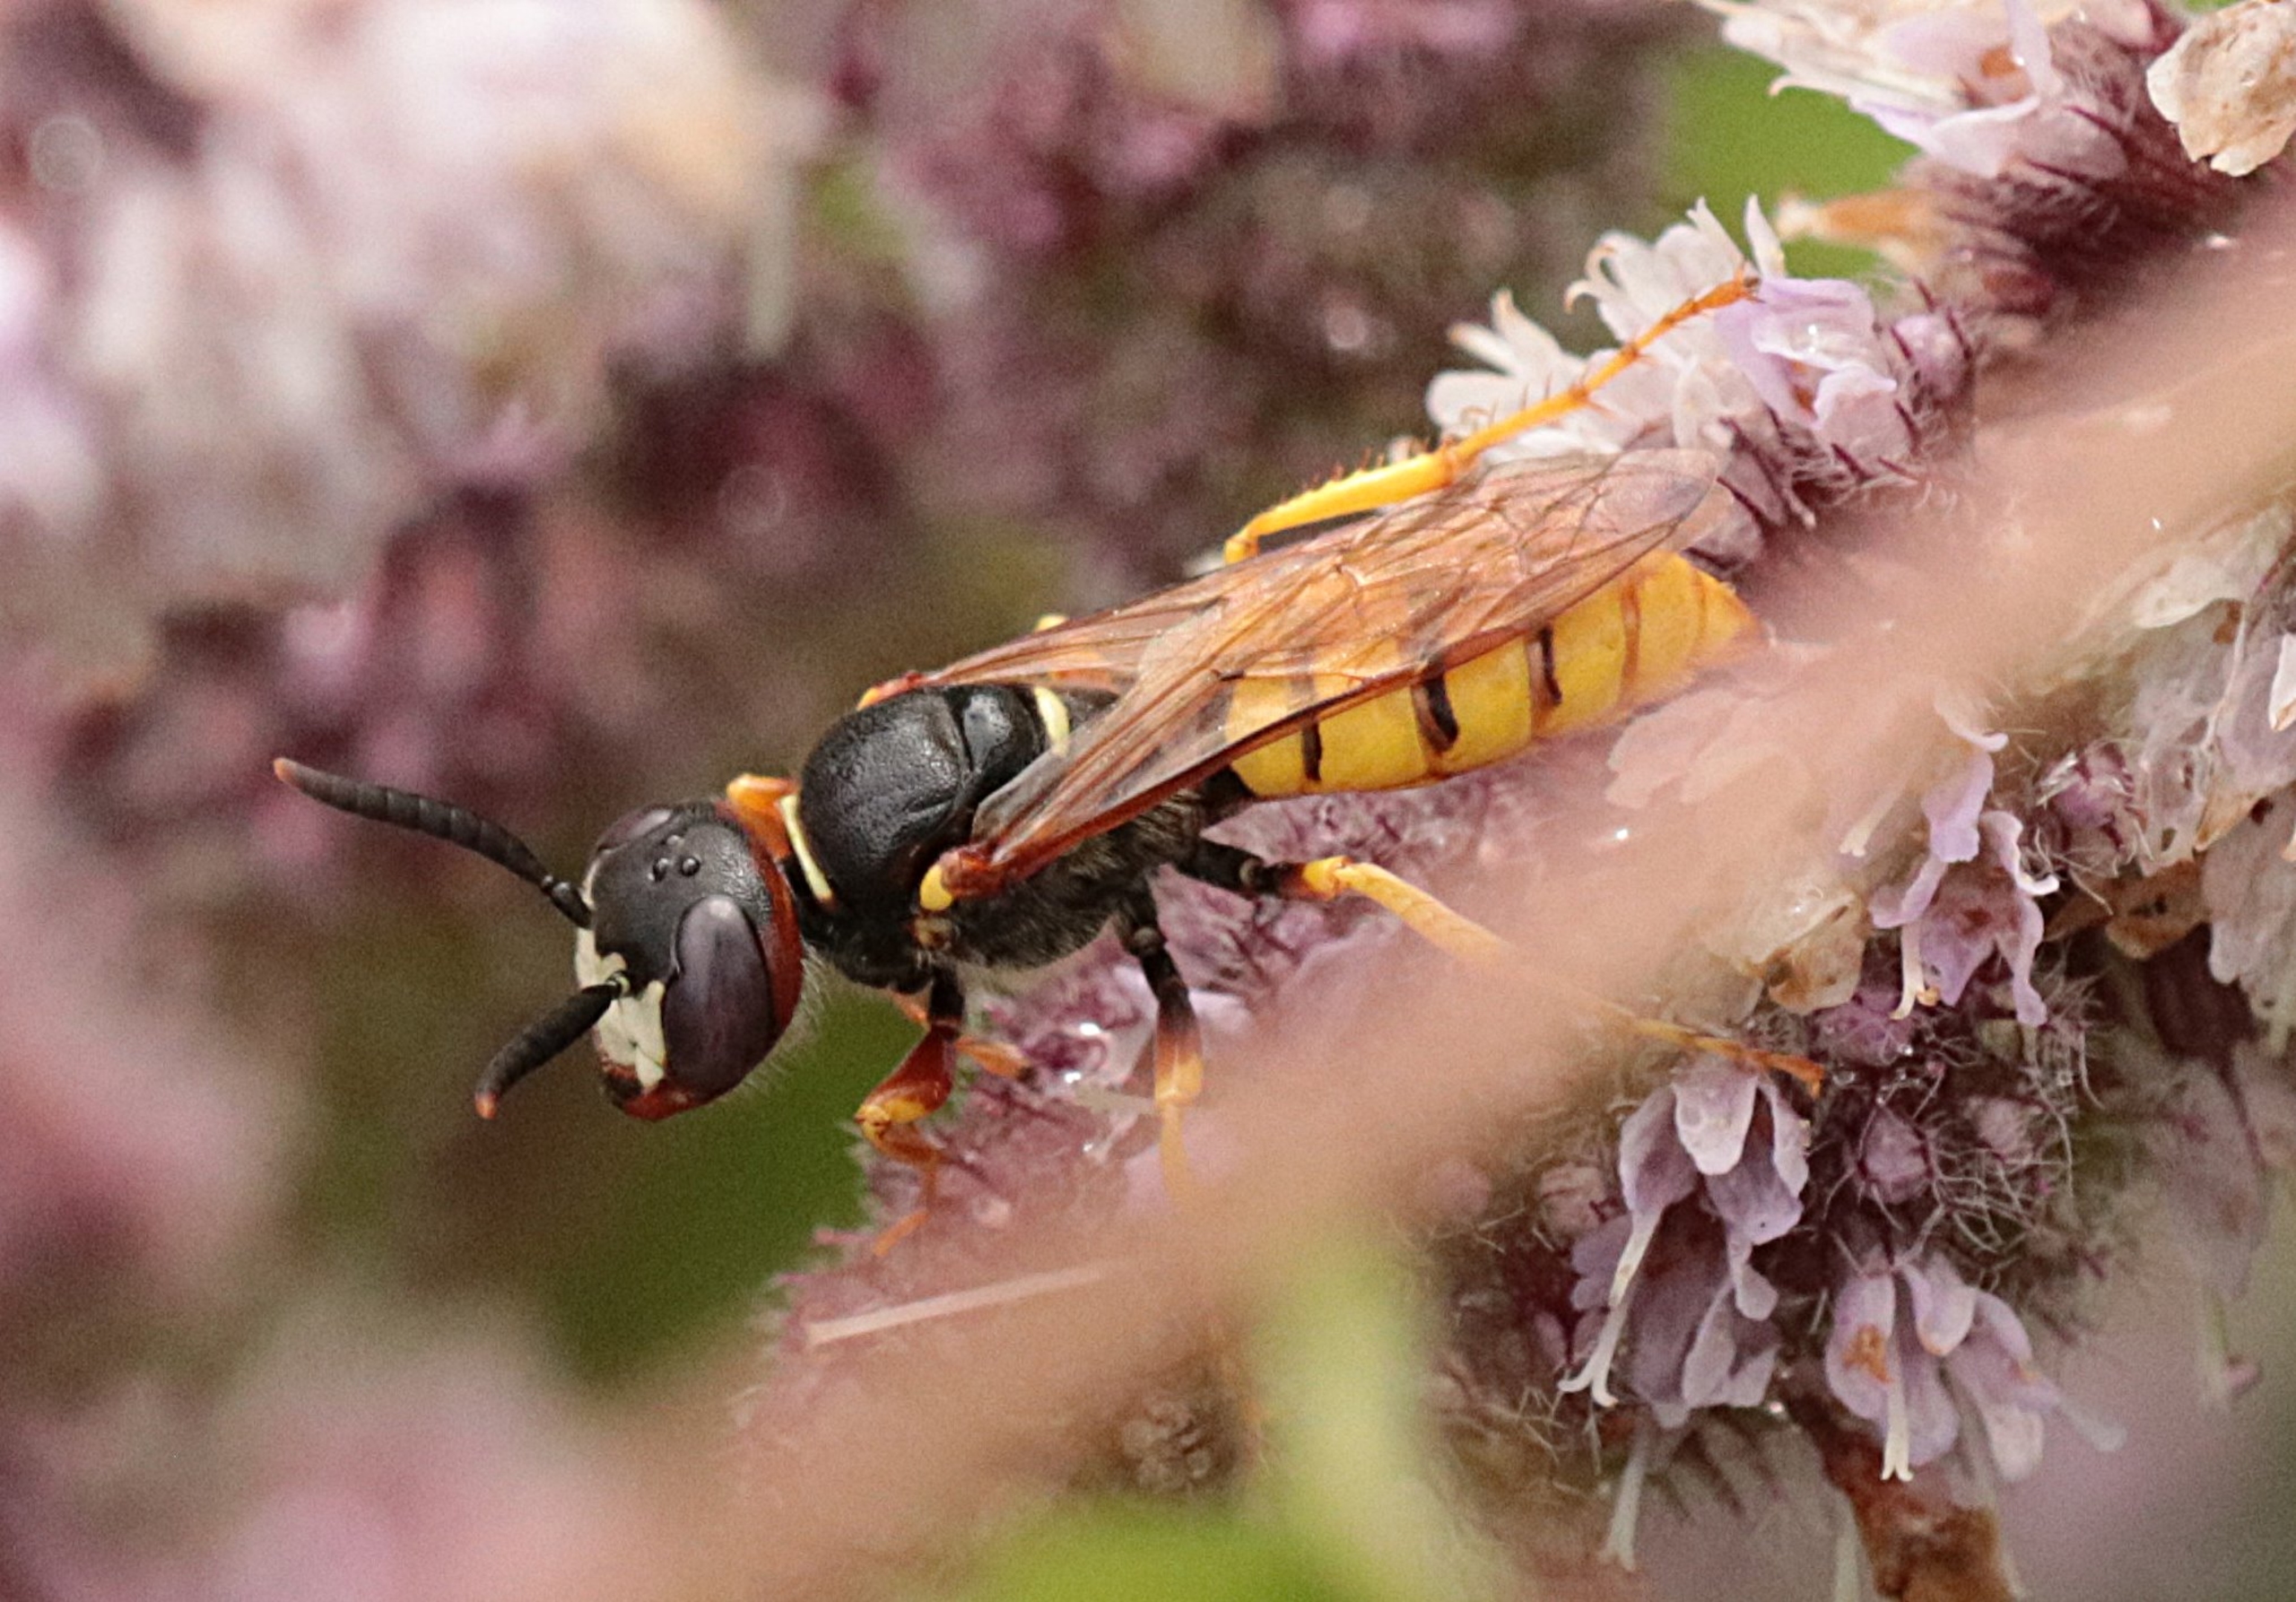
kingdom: Animalia
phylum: Arthropoda
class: Insecta
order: Hymenoptera
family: Crabronidae
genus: Philanthus
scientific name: Philanthus triangulum
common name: Biulv
